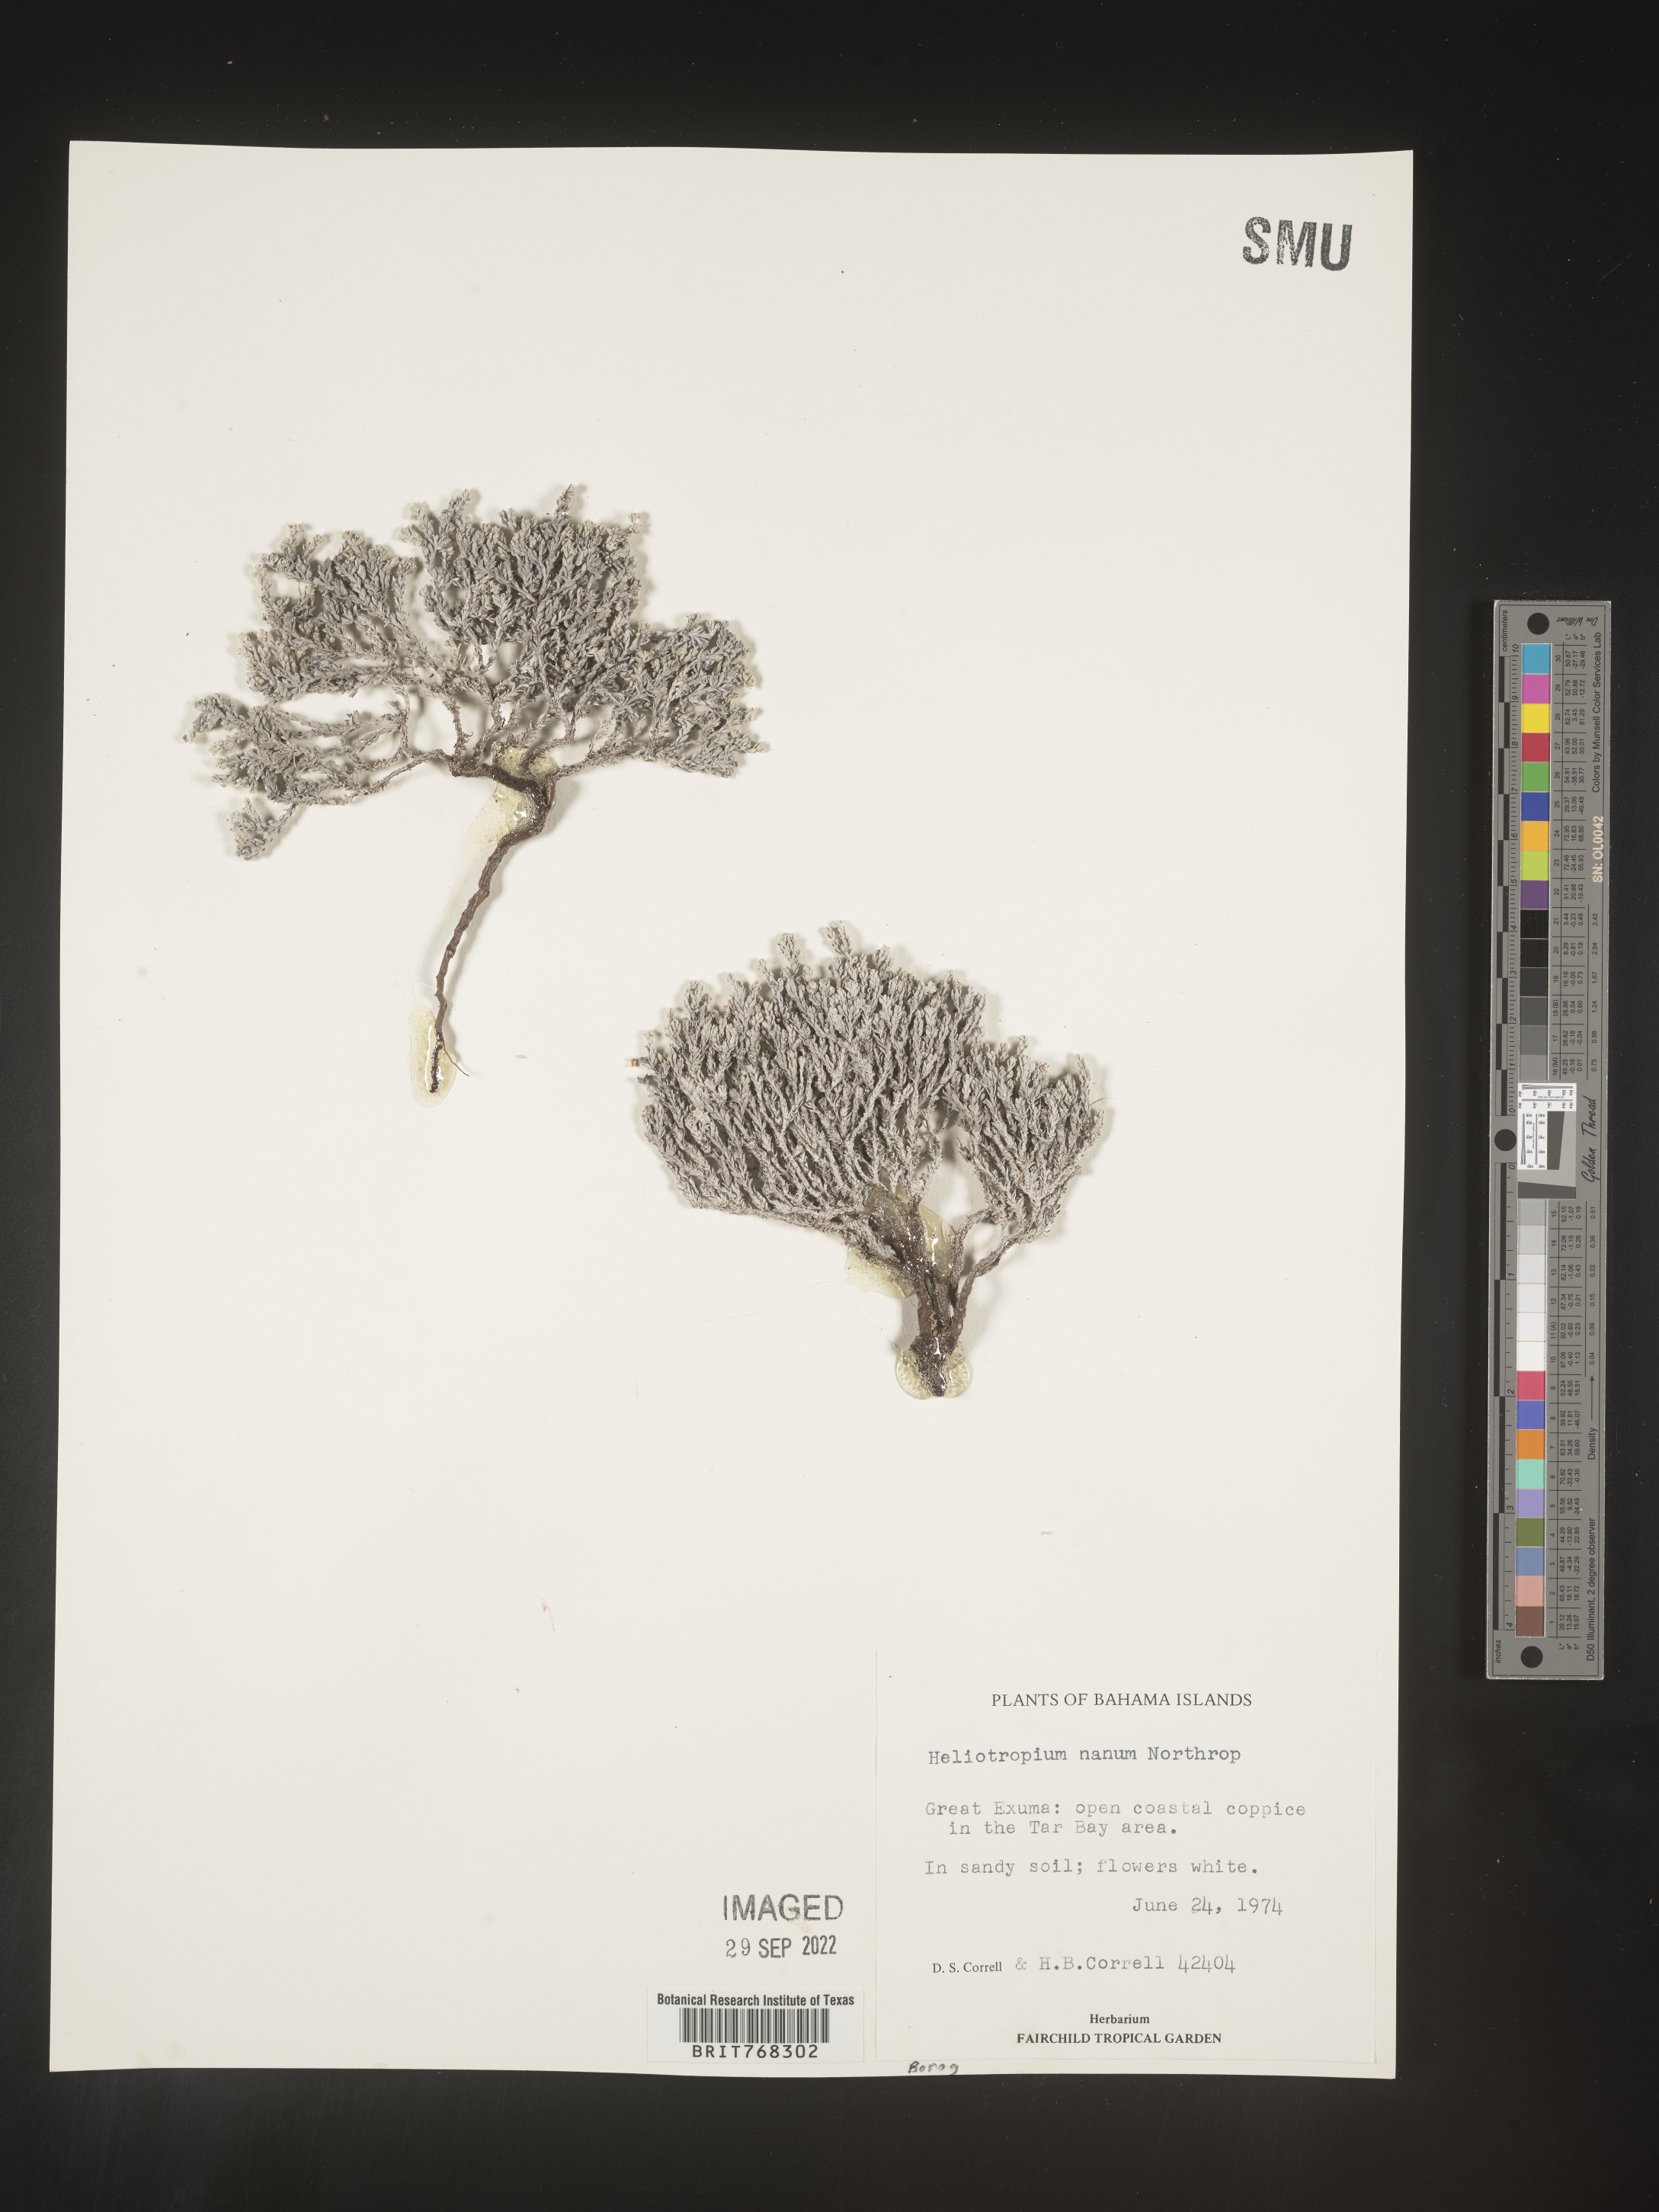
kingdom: Plantae
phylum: Tracheophyta
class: Magnoliopsida
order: Boraginales
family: Heliotropiaceae
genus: Heliotropium
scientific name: Heliotropium
